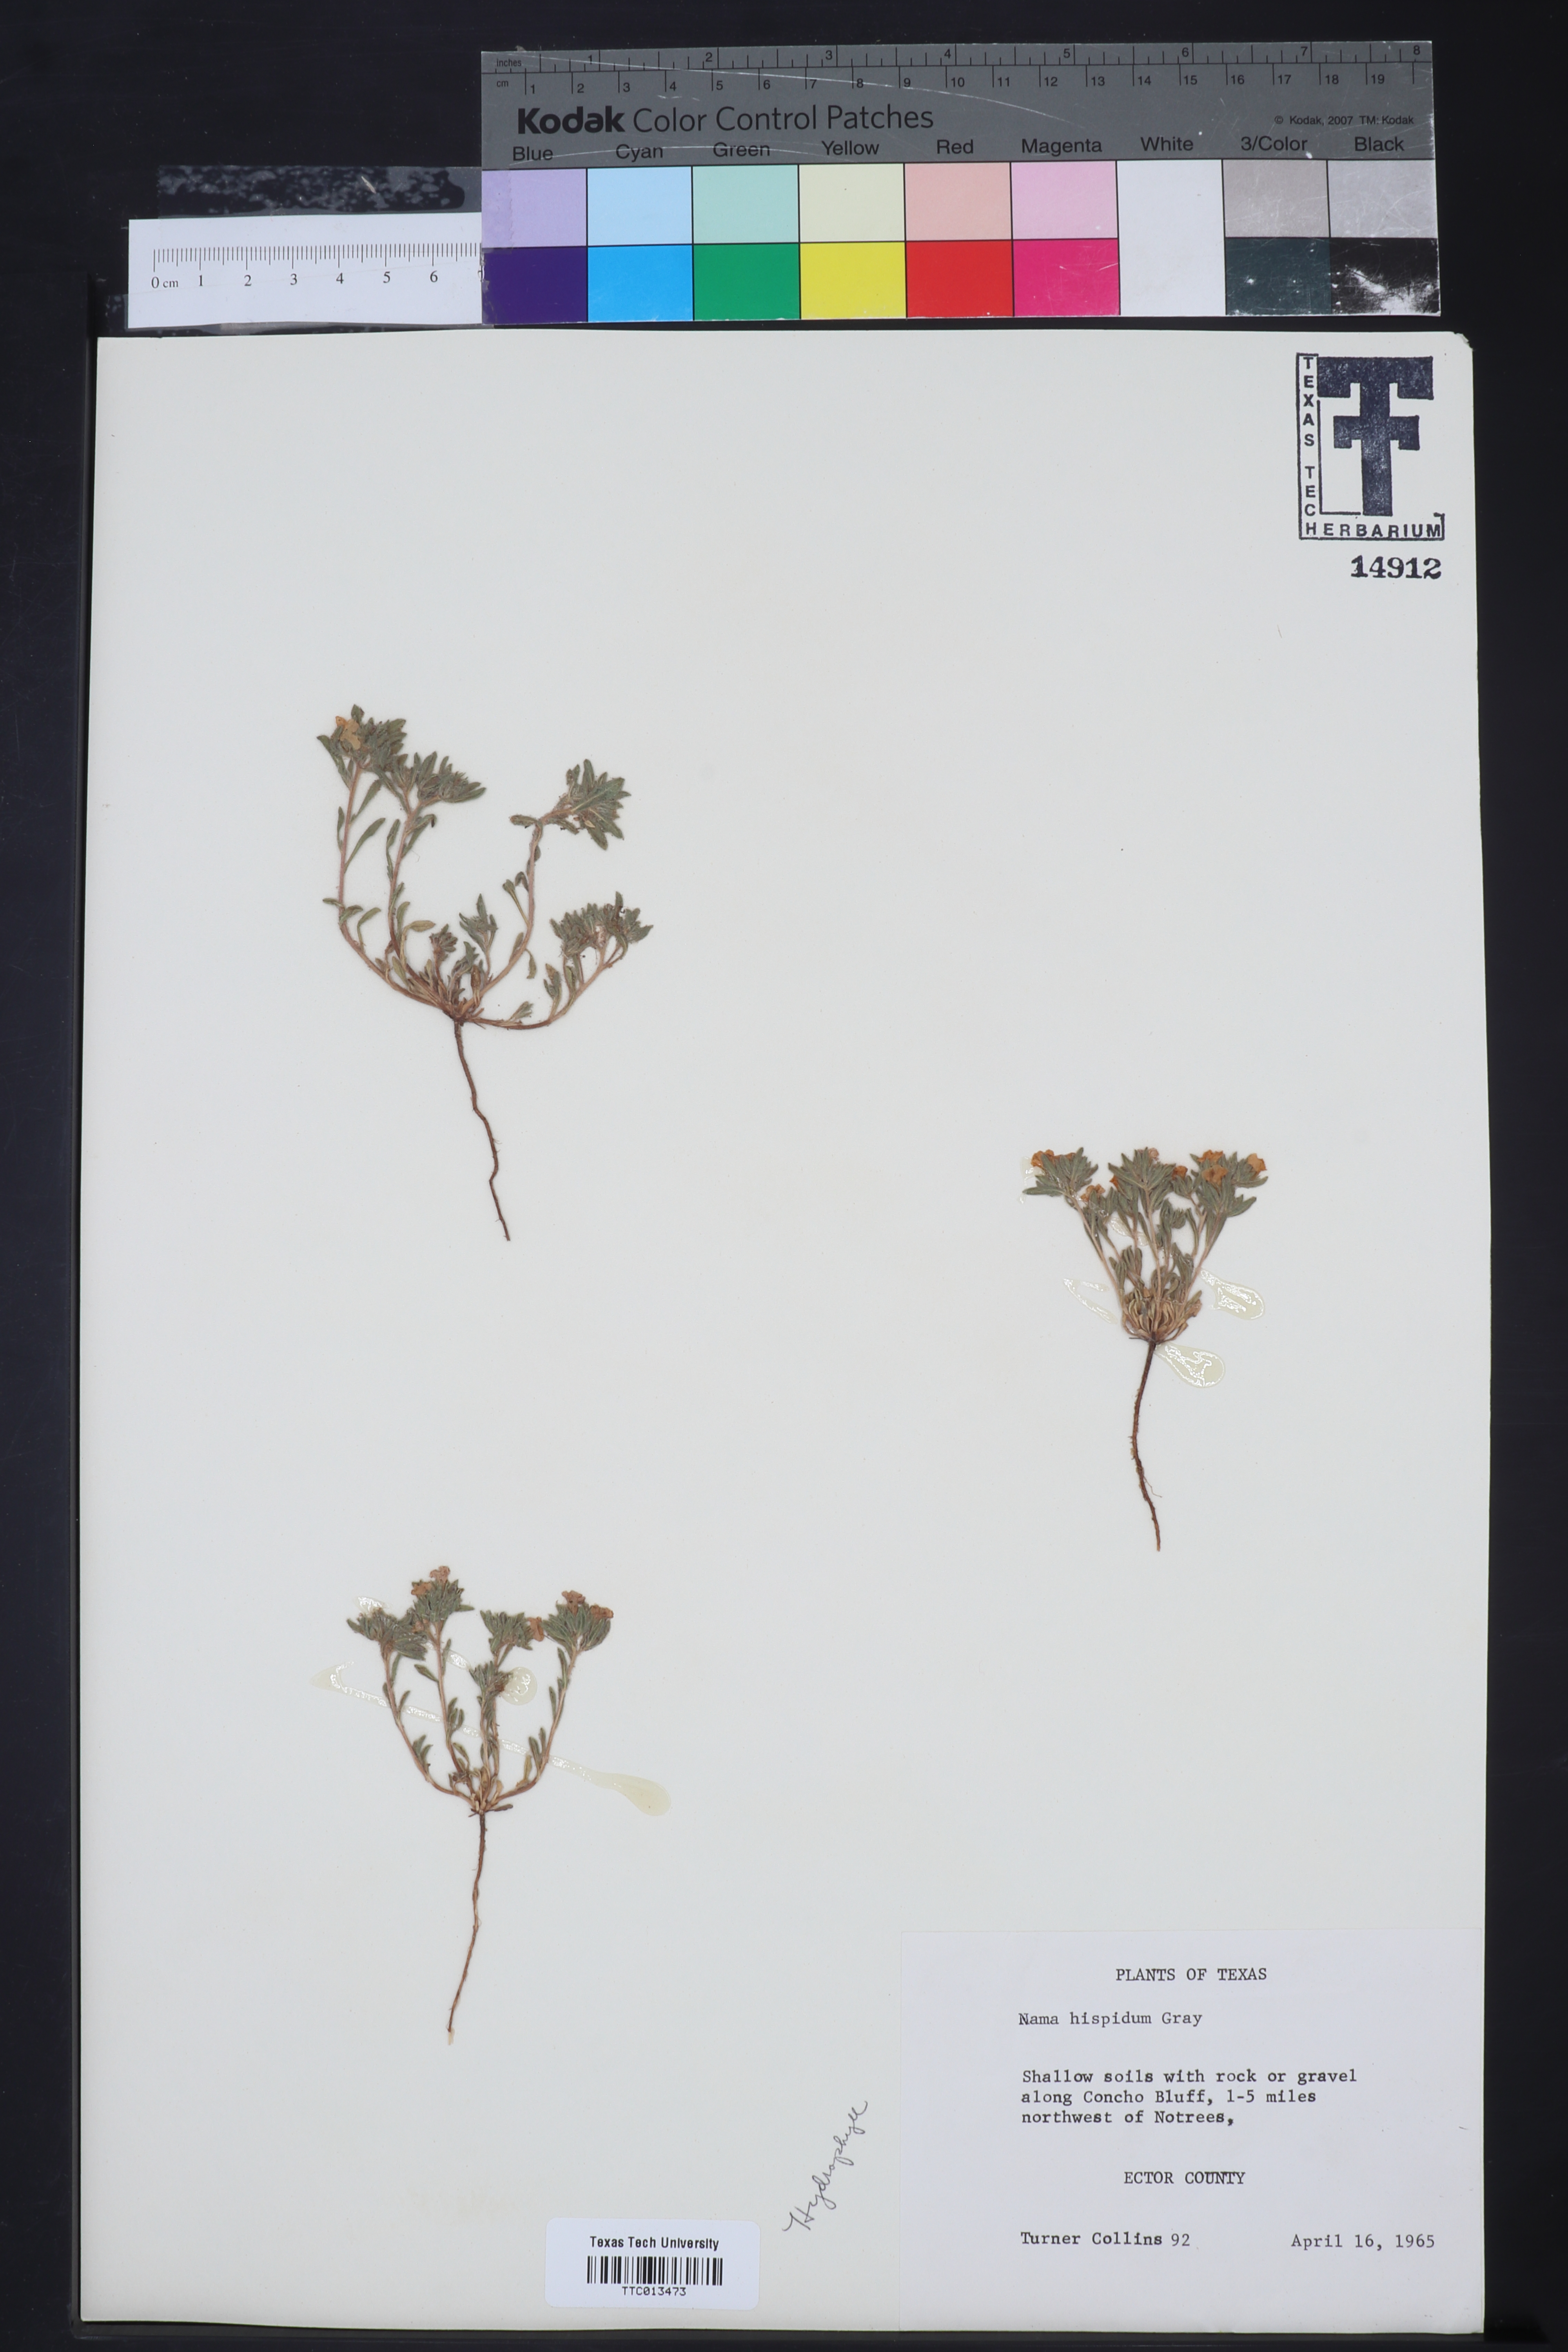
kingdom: Plantae
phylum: Tracheophyta
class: Magnoliopsida
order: Boraginales
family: Namaceae
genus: Nama
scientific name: Nama hispida
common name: Bristly nama
